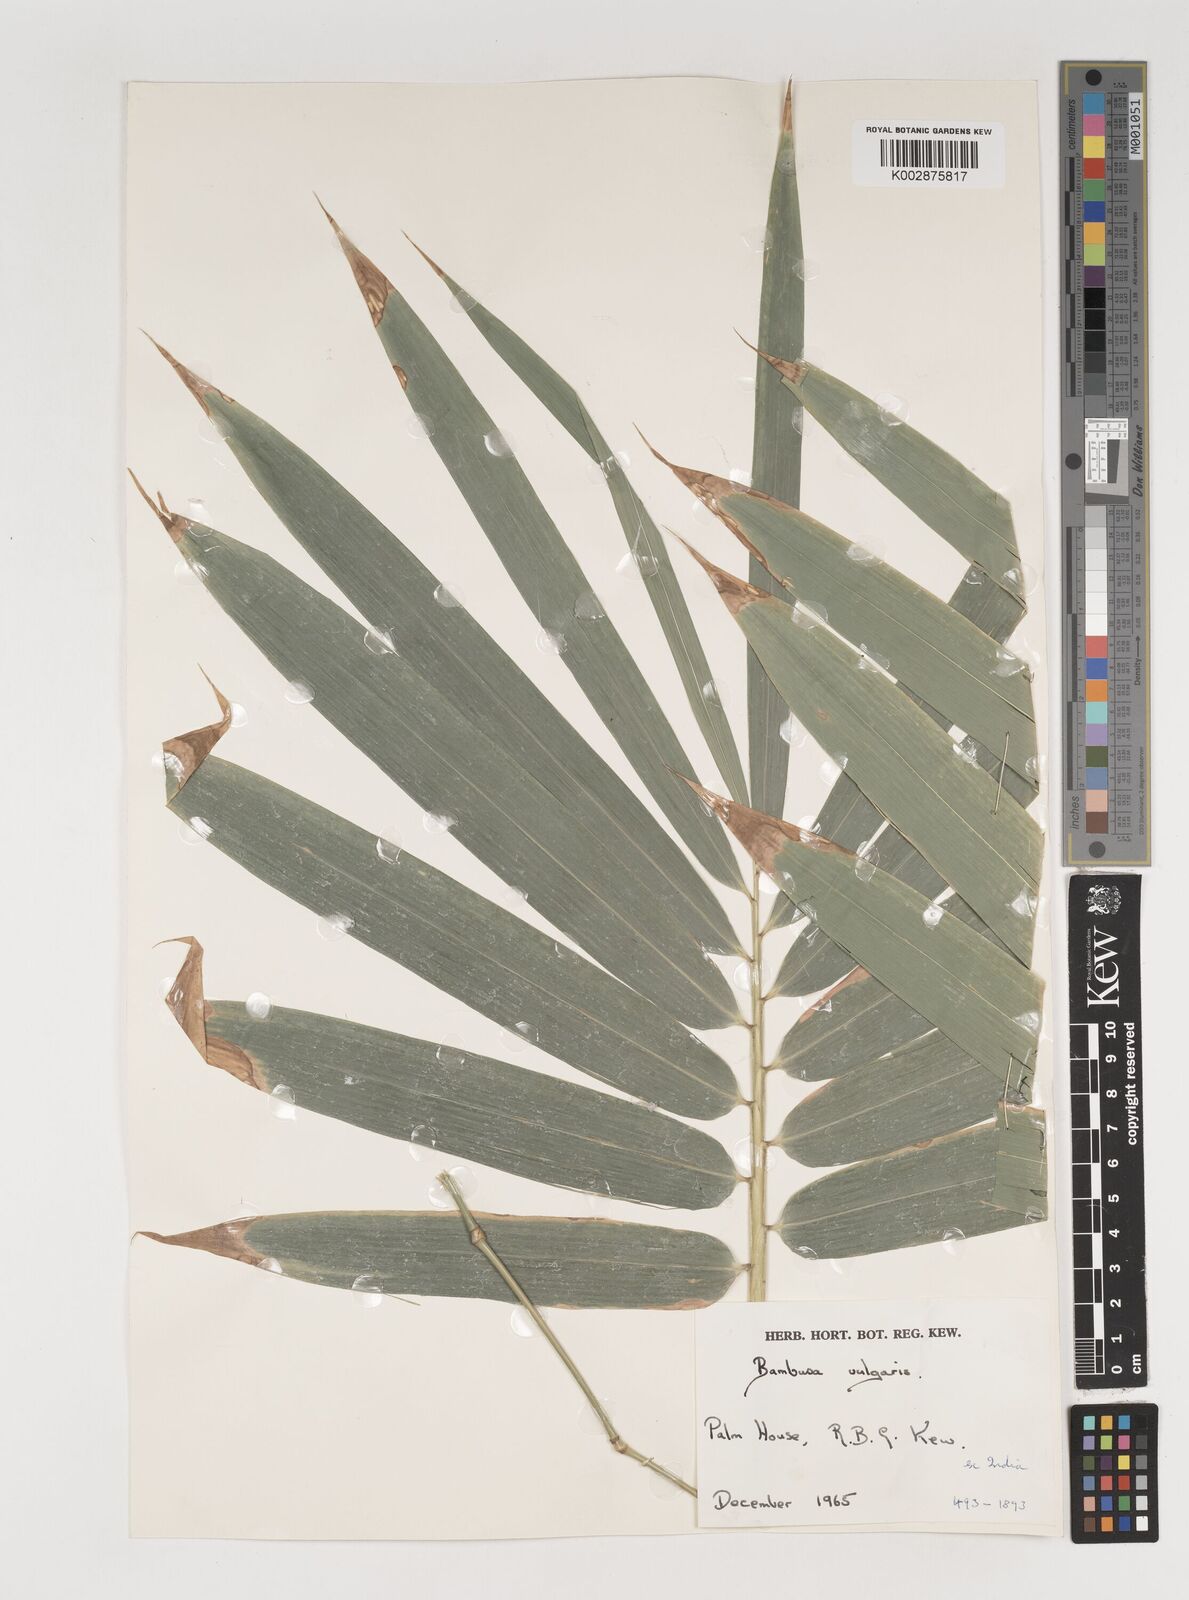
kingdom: Plantae
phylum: Tracheophyta
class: Liliopsida
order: Poales
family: Poaceae
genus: Bambusa
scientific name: Bambusa balcooa
